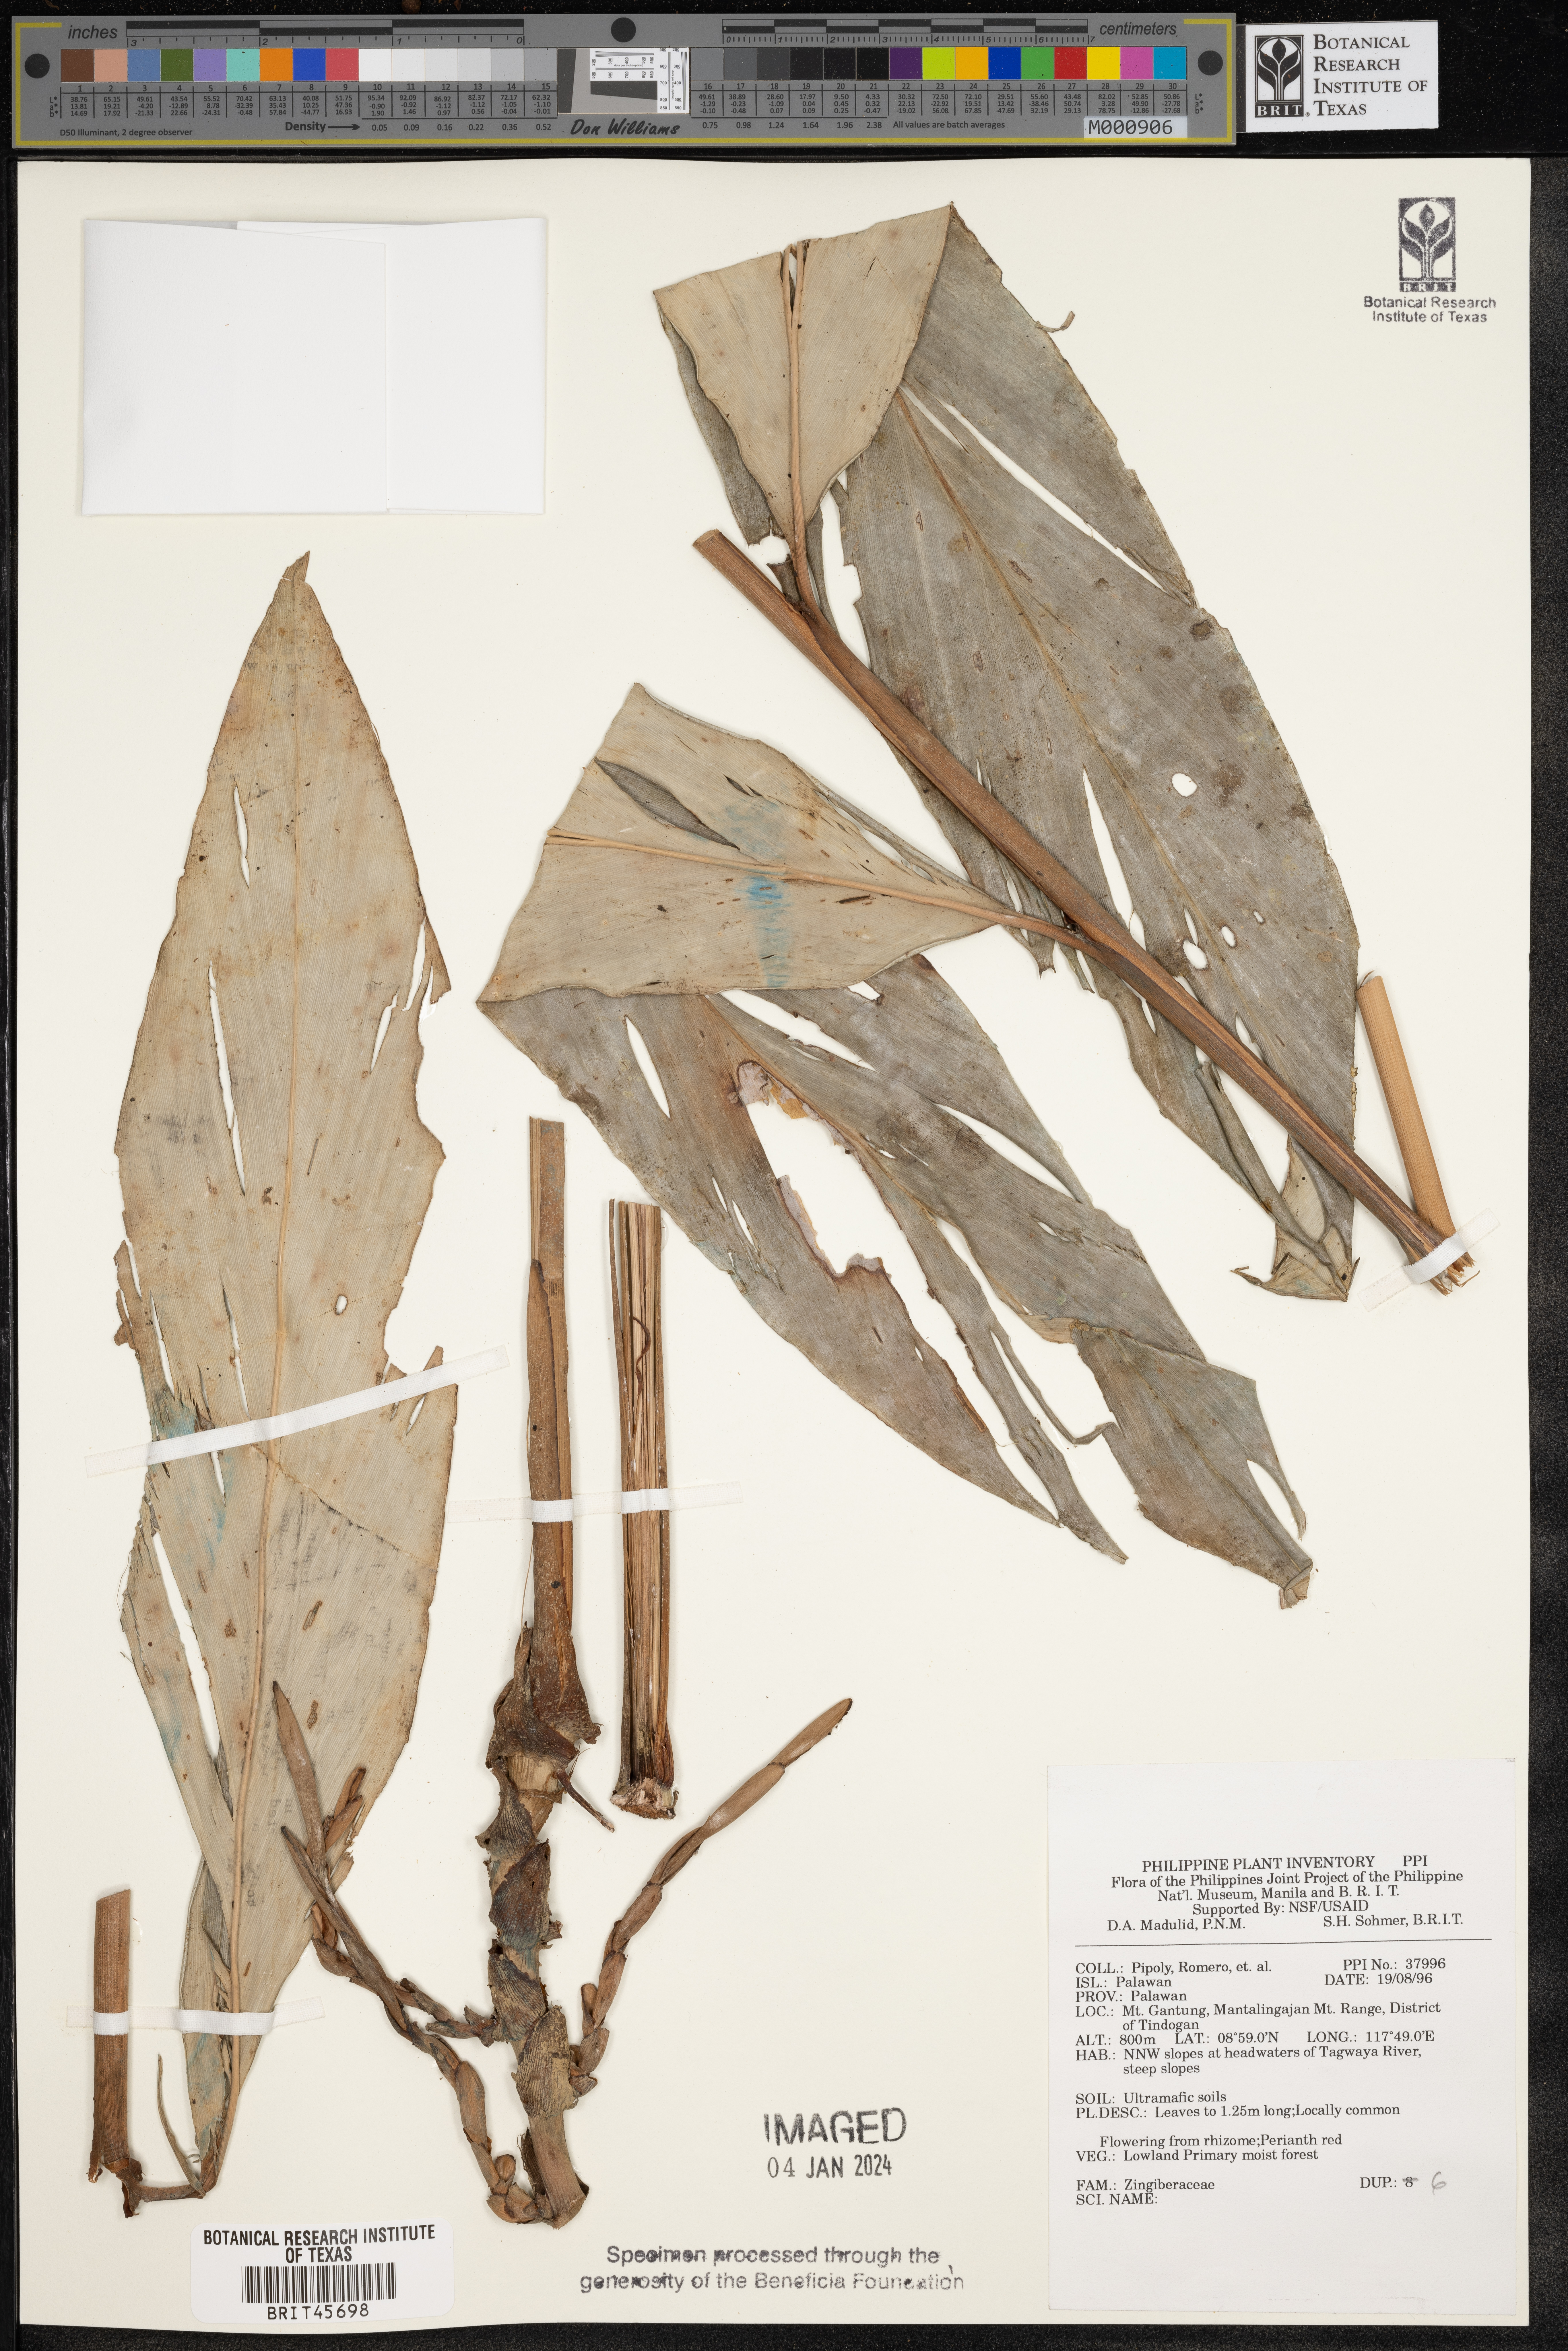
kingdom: Plantae
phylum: Tracheophyta
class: Liliopsida
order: Zingiberales
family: Zingiberaceae
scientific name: Zingiberaceae
